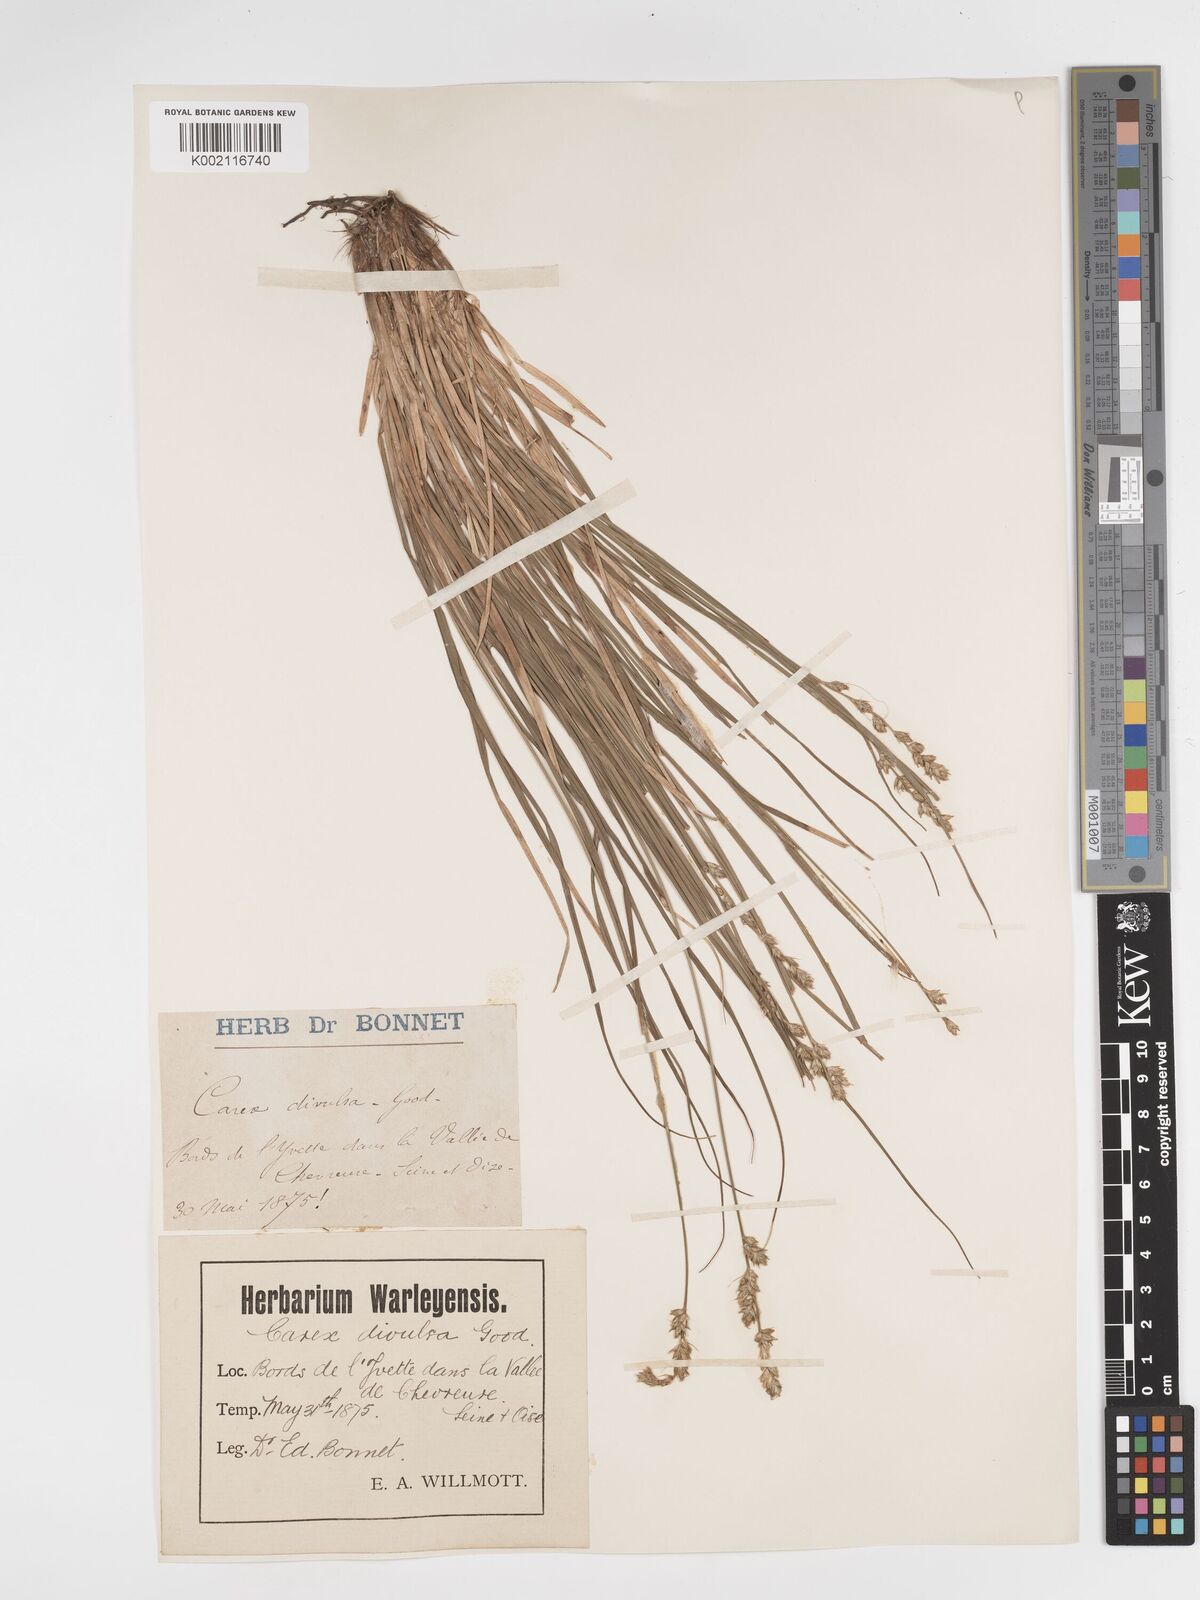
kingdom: Plantae
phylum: Tracheophyta
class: Liliopsida
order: Poales
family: Cyperaceae
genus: Carex
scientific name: Carex divulsa
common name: Grassland sedge
